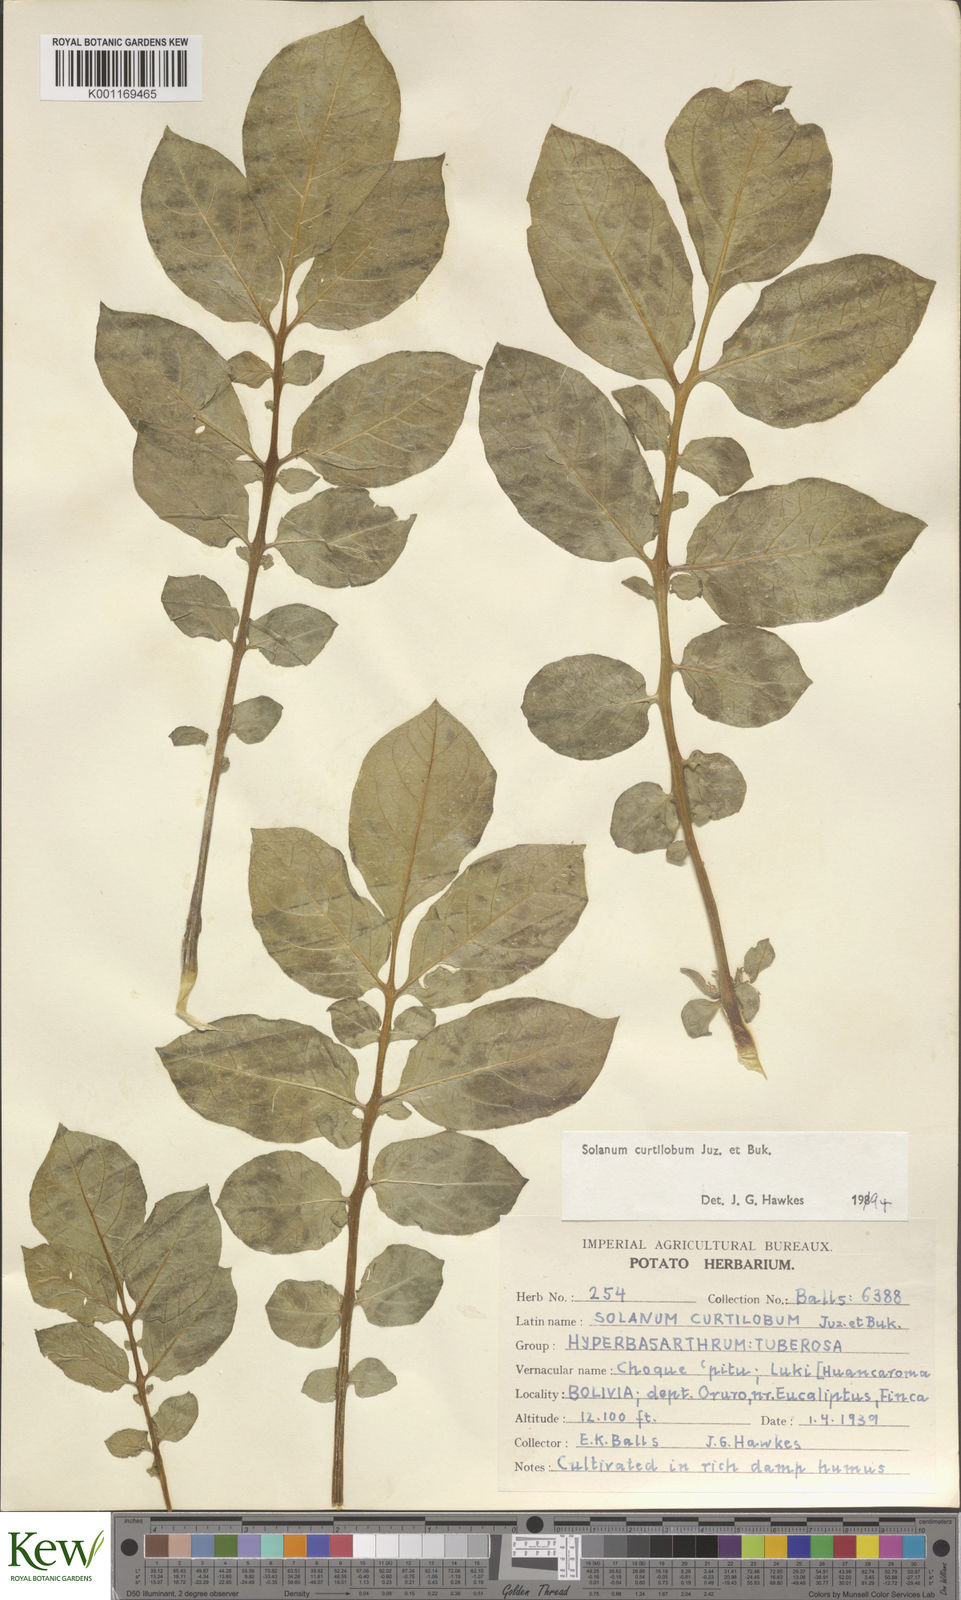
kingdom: Plantae
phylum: Tracheophyta
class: Magnoliopsida
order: Solanales
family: Solanaceae
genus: Solanum
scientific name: Solanum curtilobum
